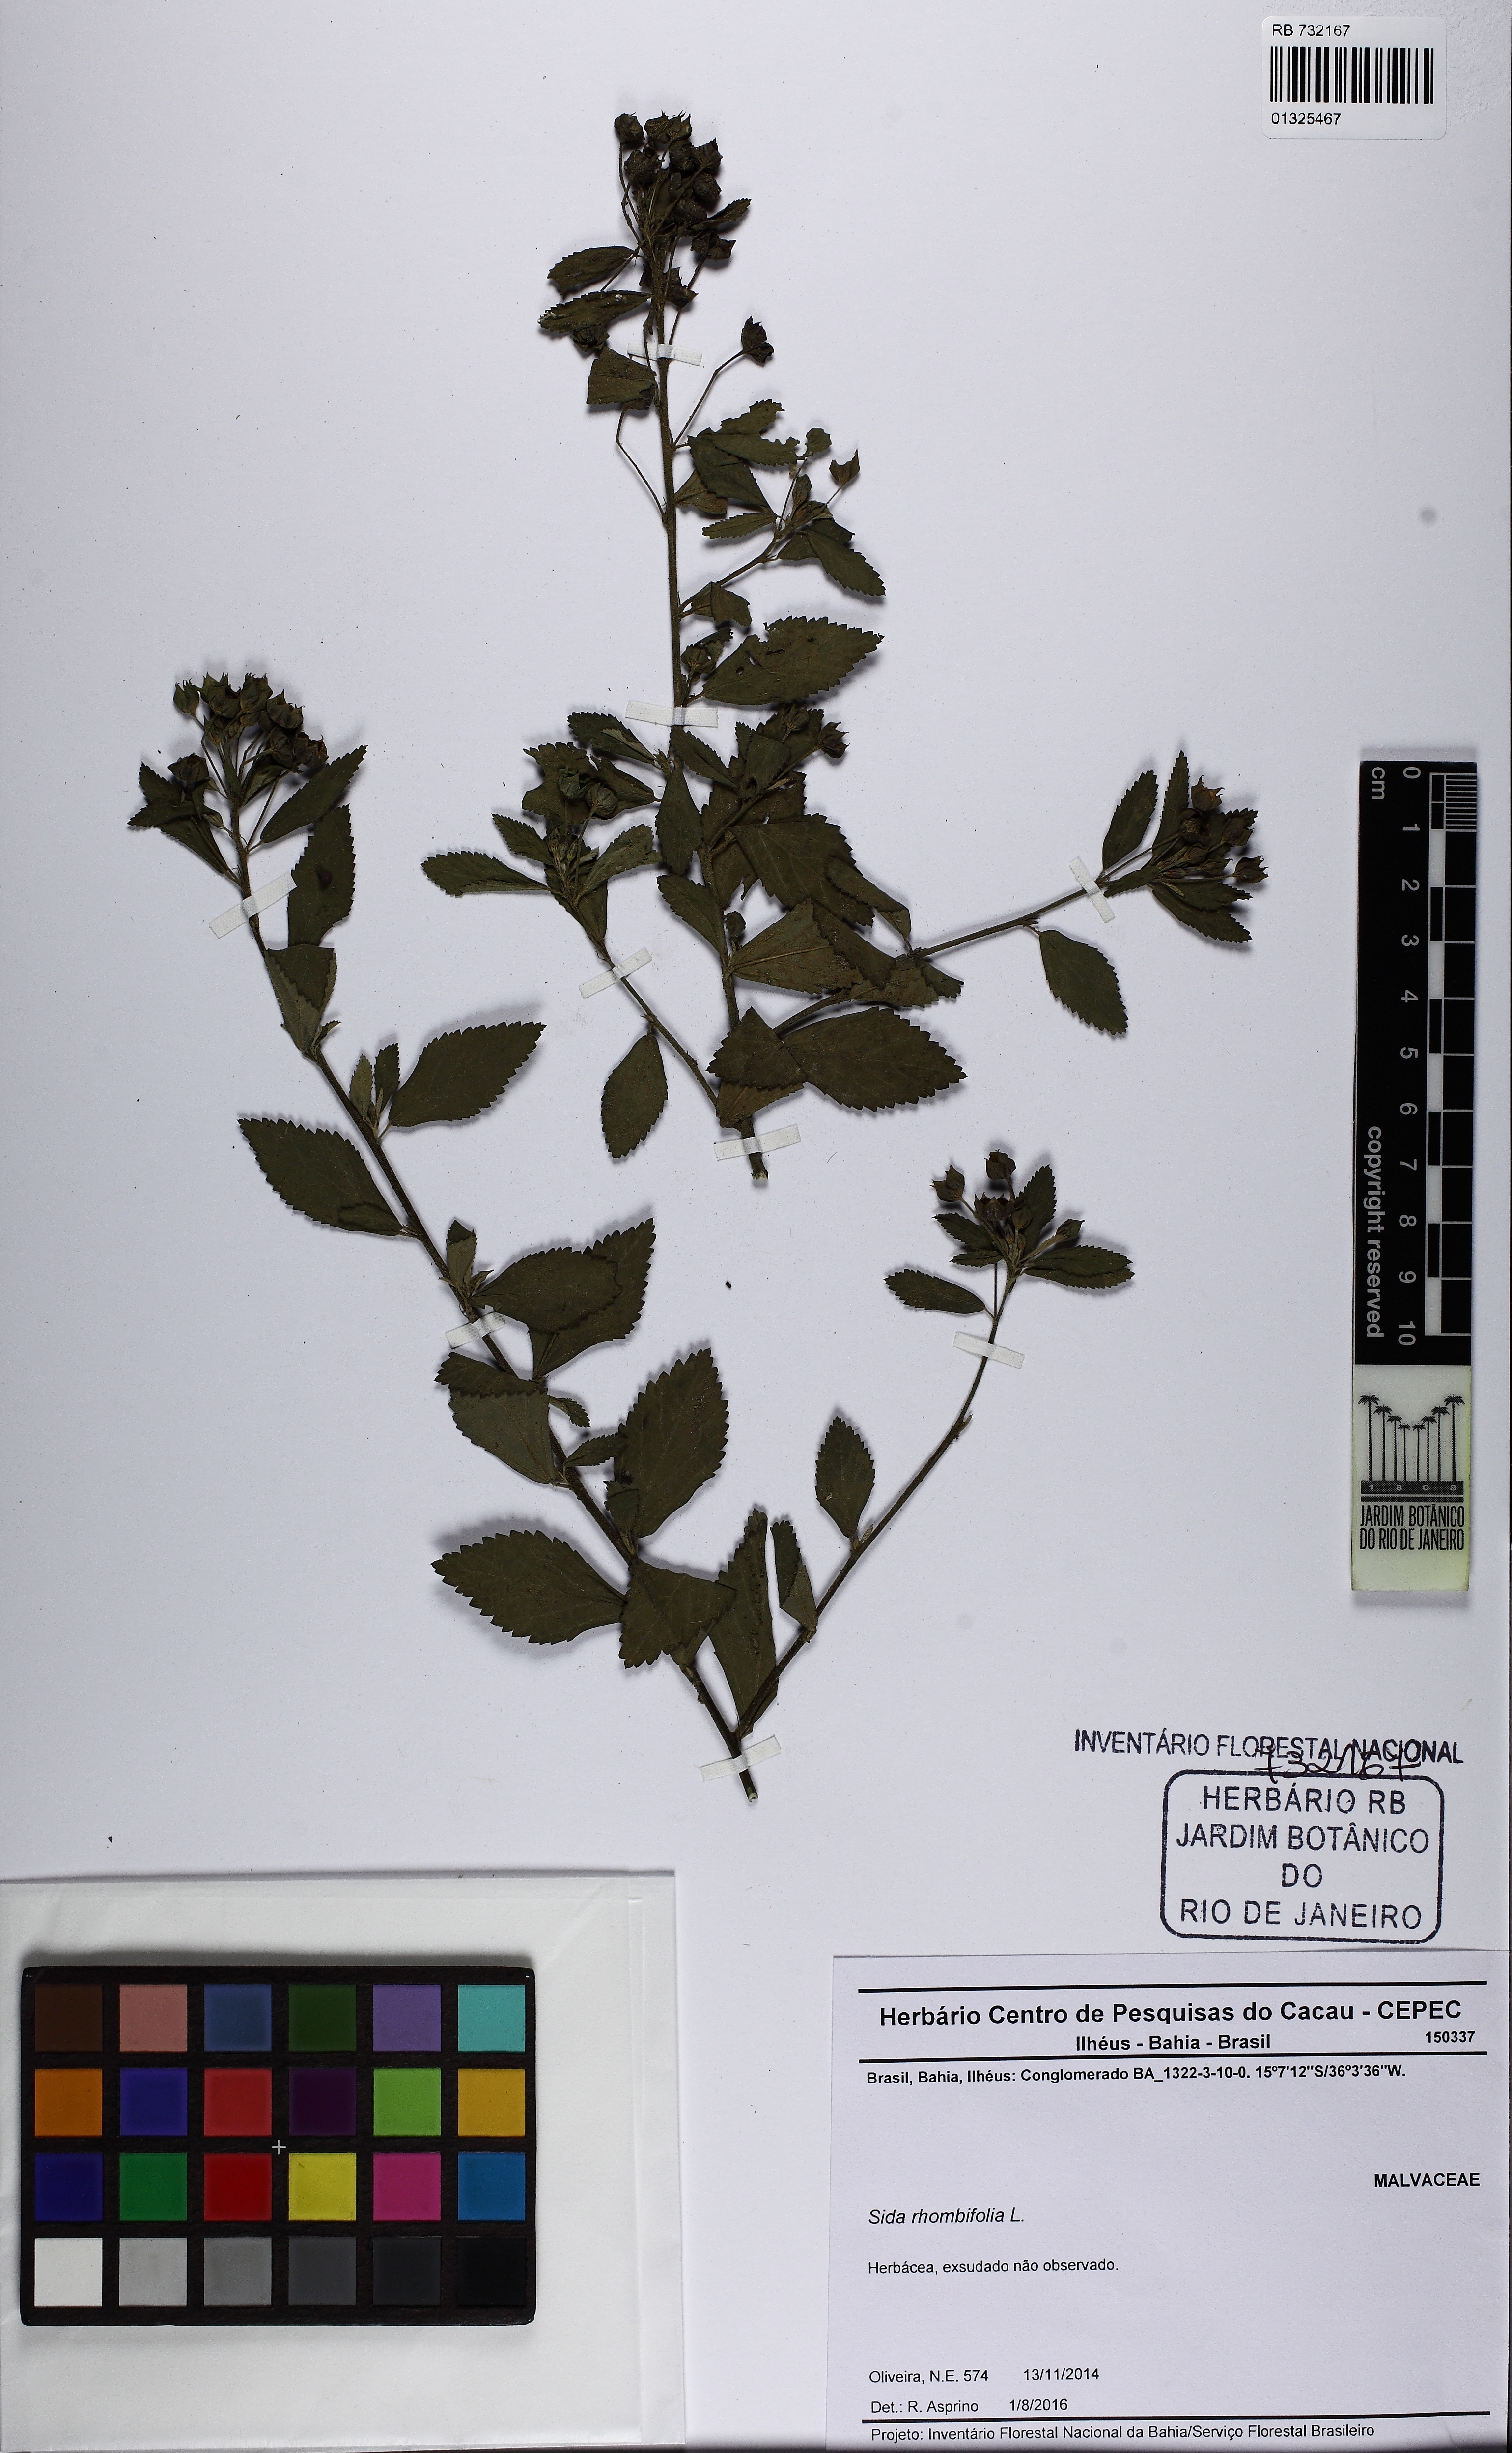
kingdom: Plantae
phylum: Tracheophyta
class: Magnoliopsida
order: Malvales
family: Malvaceae
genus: Sida
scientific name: Sida rhombifolia
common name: Queensland-hemp
